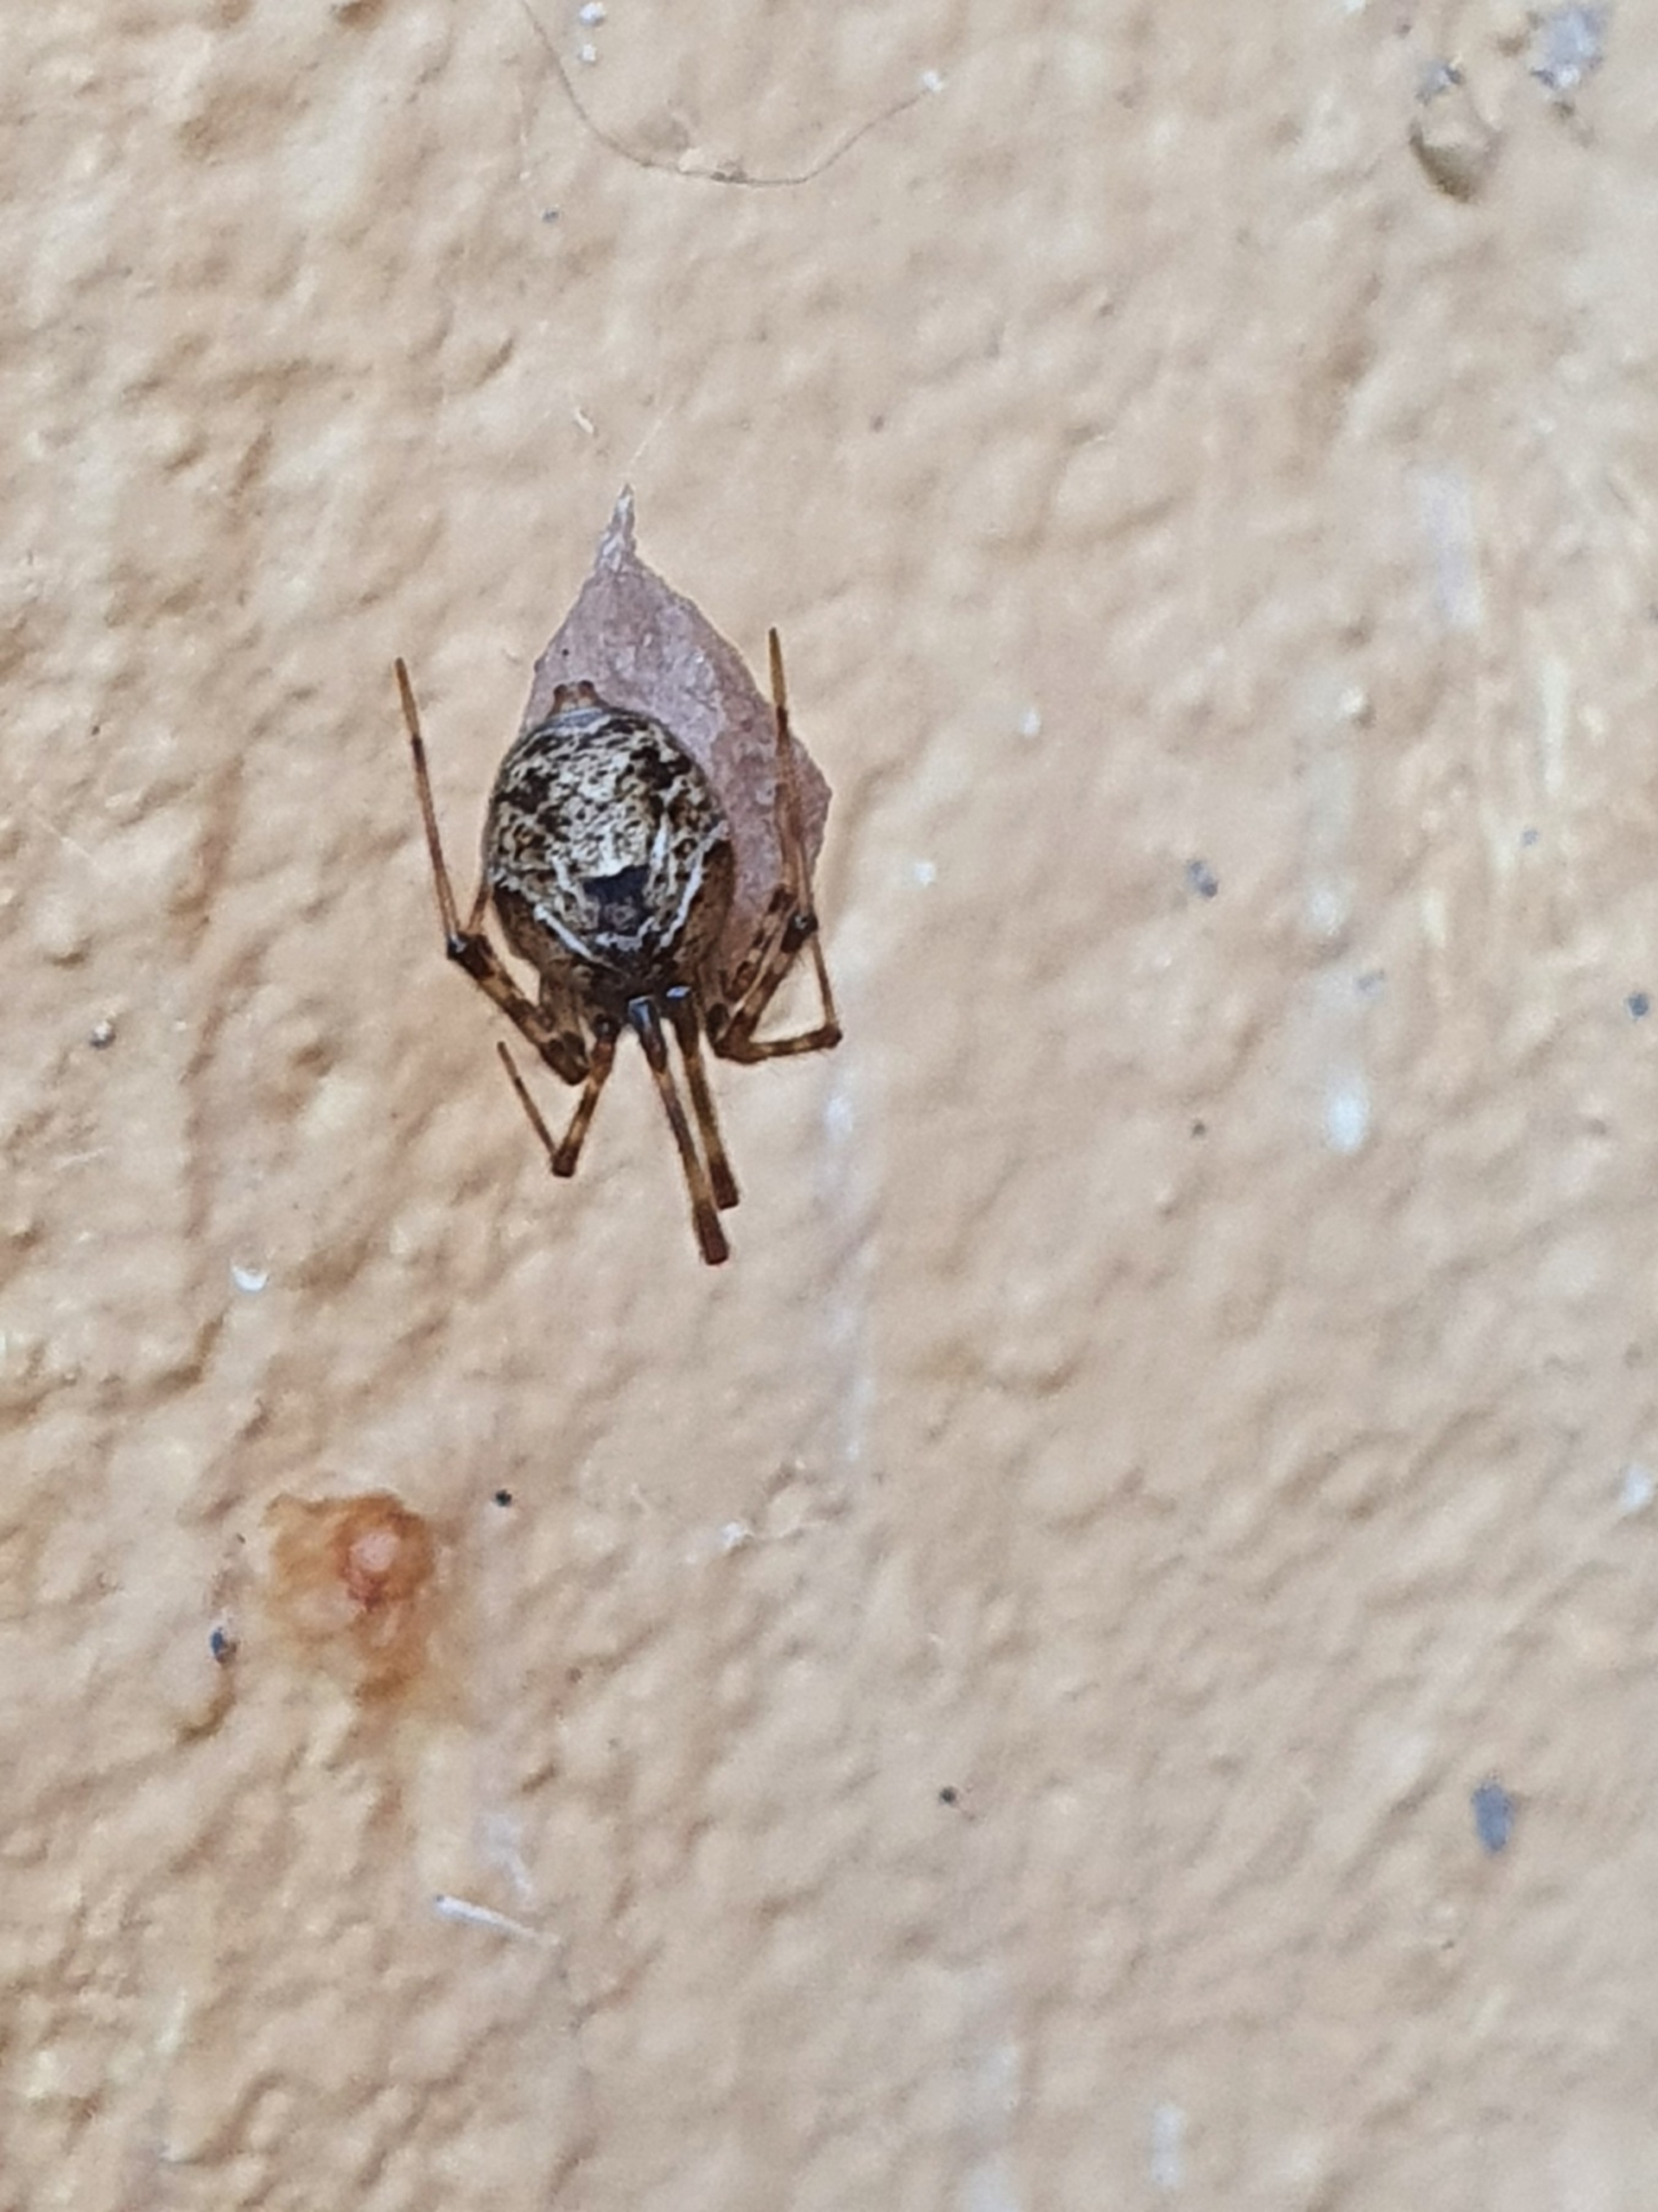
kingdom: Animalia
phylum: Arthropoda
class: Arachnida
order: Araneae
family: Theridiidae
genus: Parasteatoda
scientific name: Parasteatoda tepidariorum
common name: Væksthusspinder
